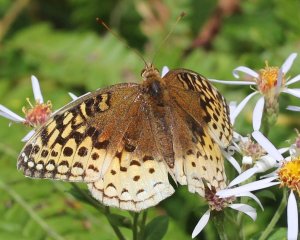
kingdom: Animalia
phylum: Arthropoda
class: Insecta
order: Lepidoptera
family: Nymphalidae
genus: Speyeria
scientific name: Speyeria cybele
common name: Great Spangled Fritillary
